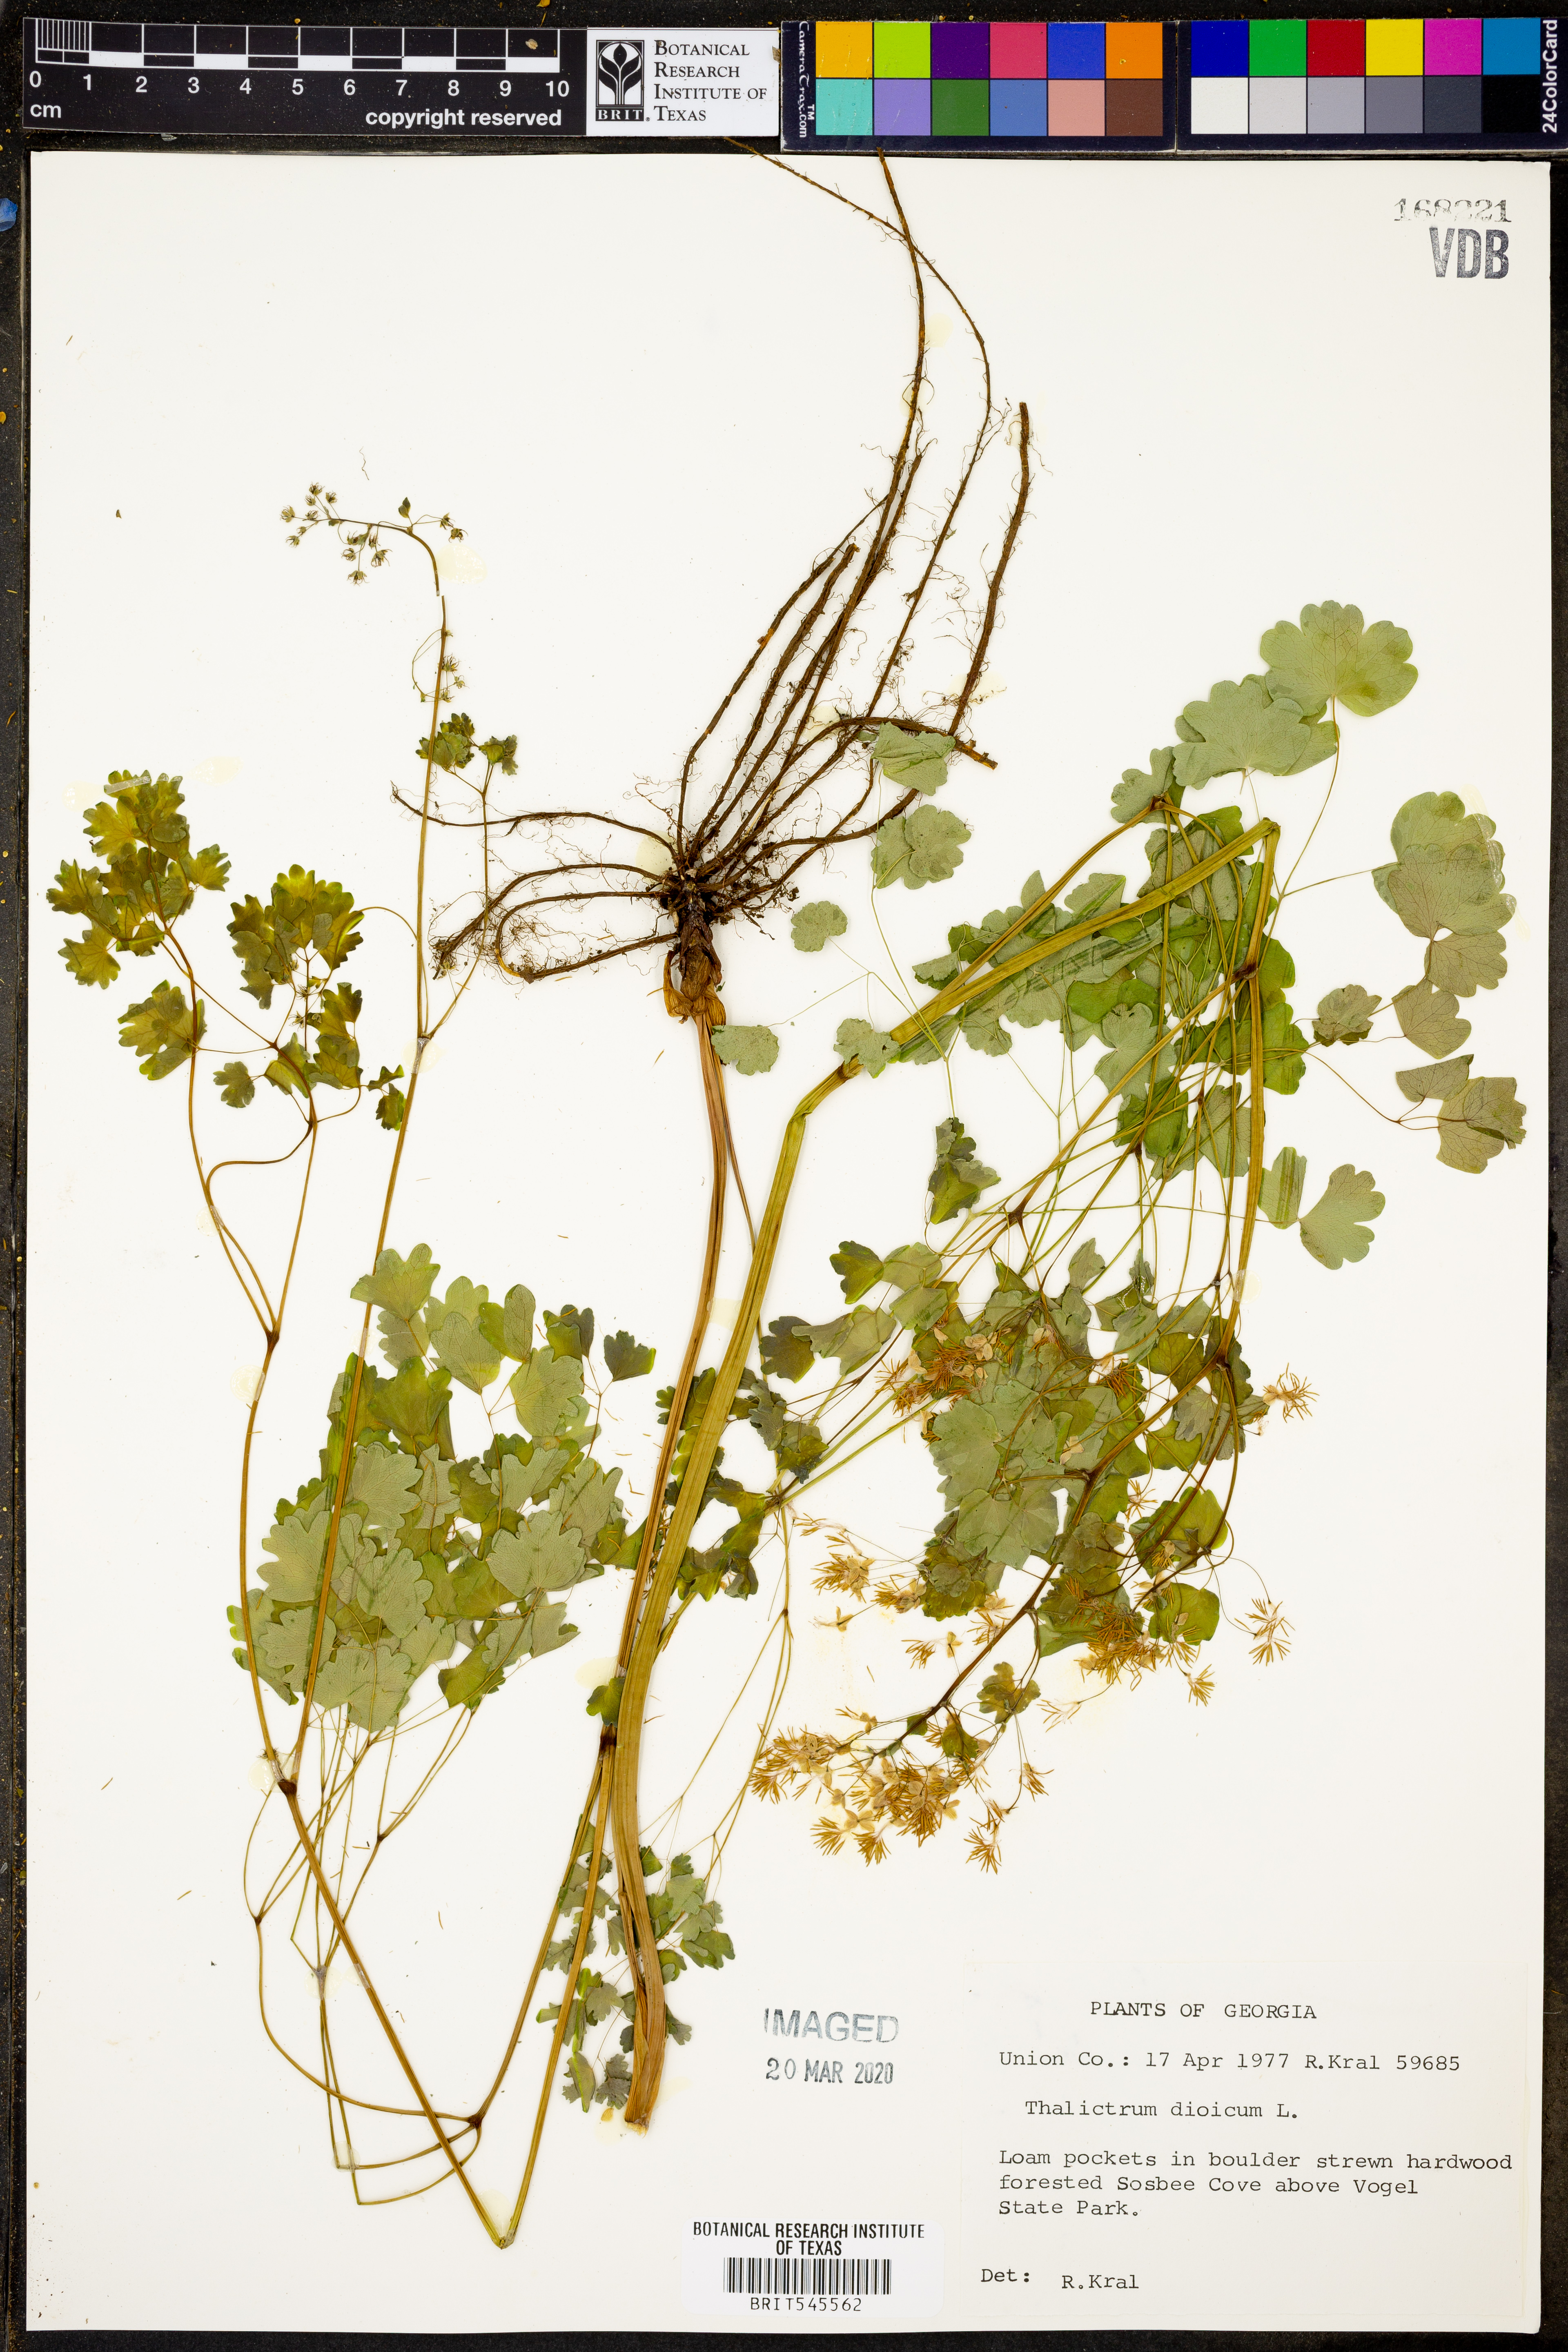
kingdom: Plantae
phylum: Tracheophyta
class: Magnoliopsida
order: Ranunculales
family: Ranunculaceae
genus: Thalictrum
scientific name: Thalictrum dioicum
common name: Early meadow-rue
